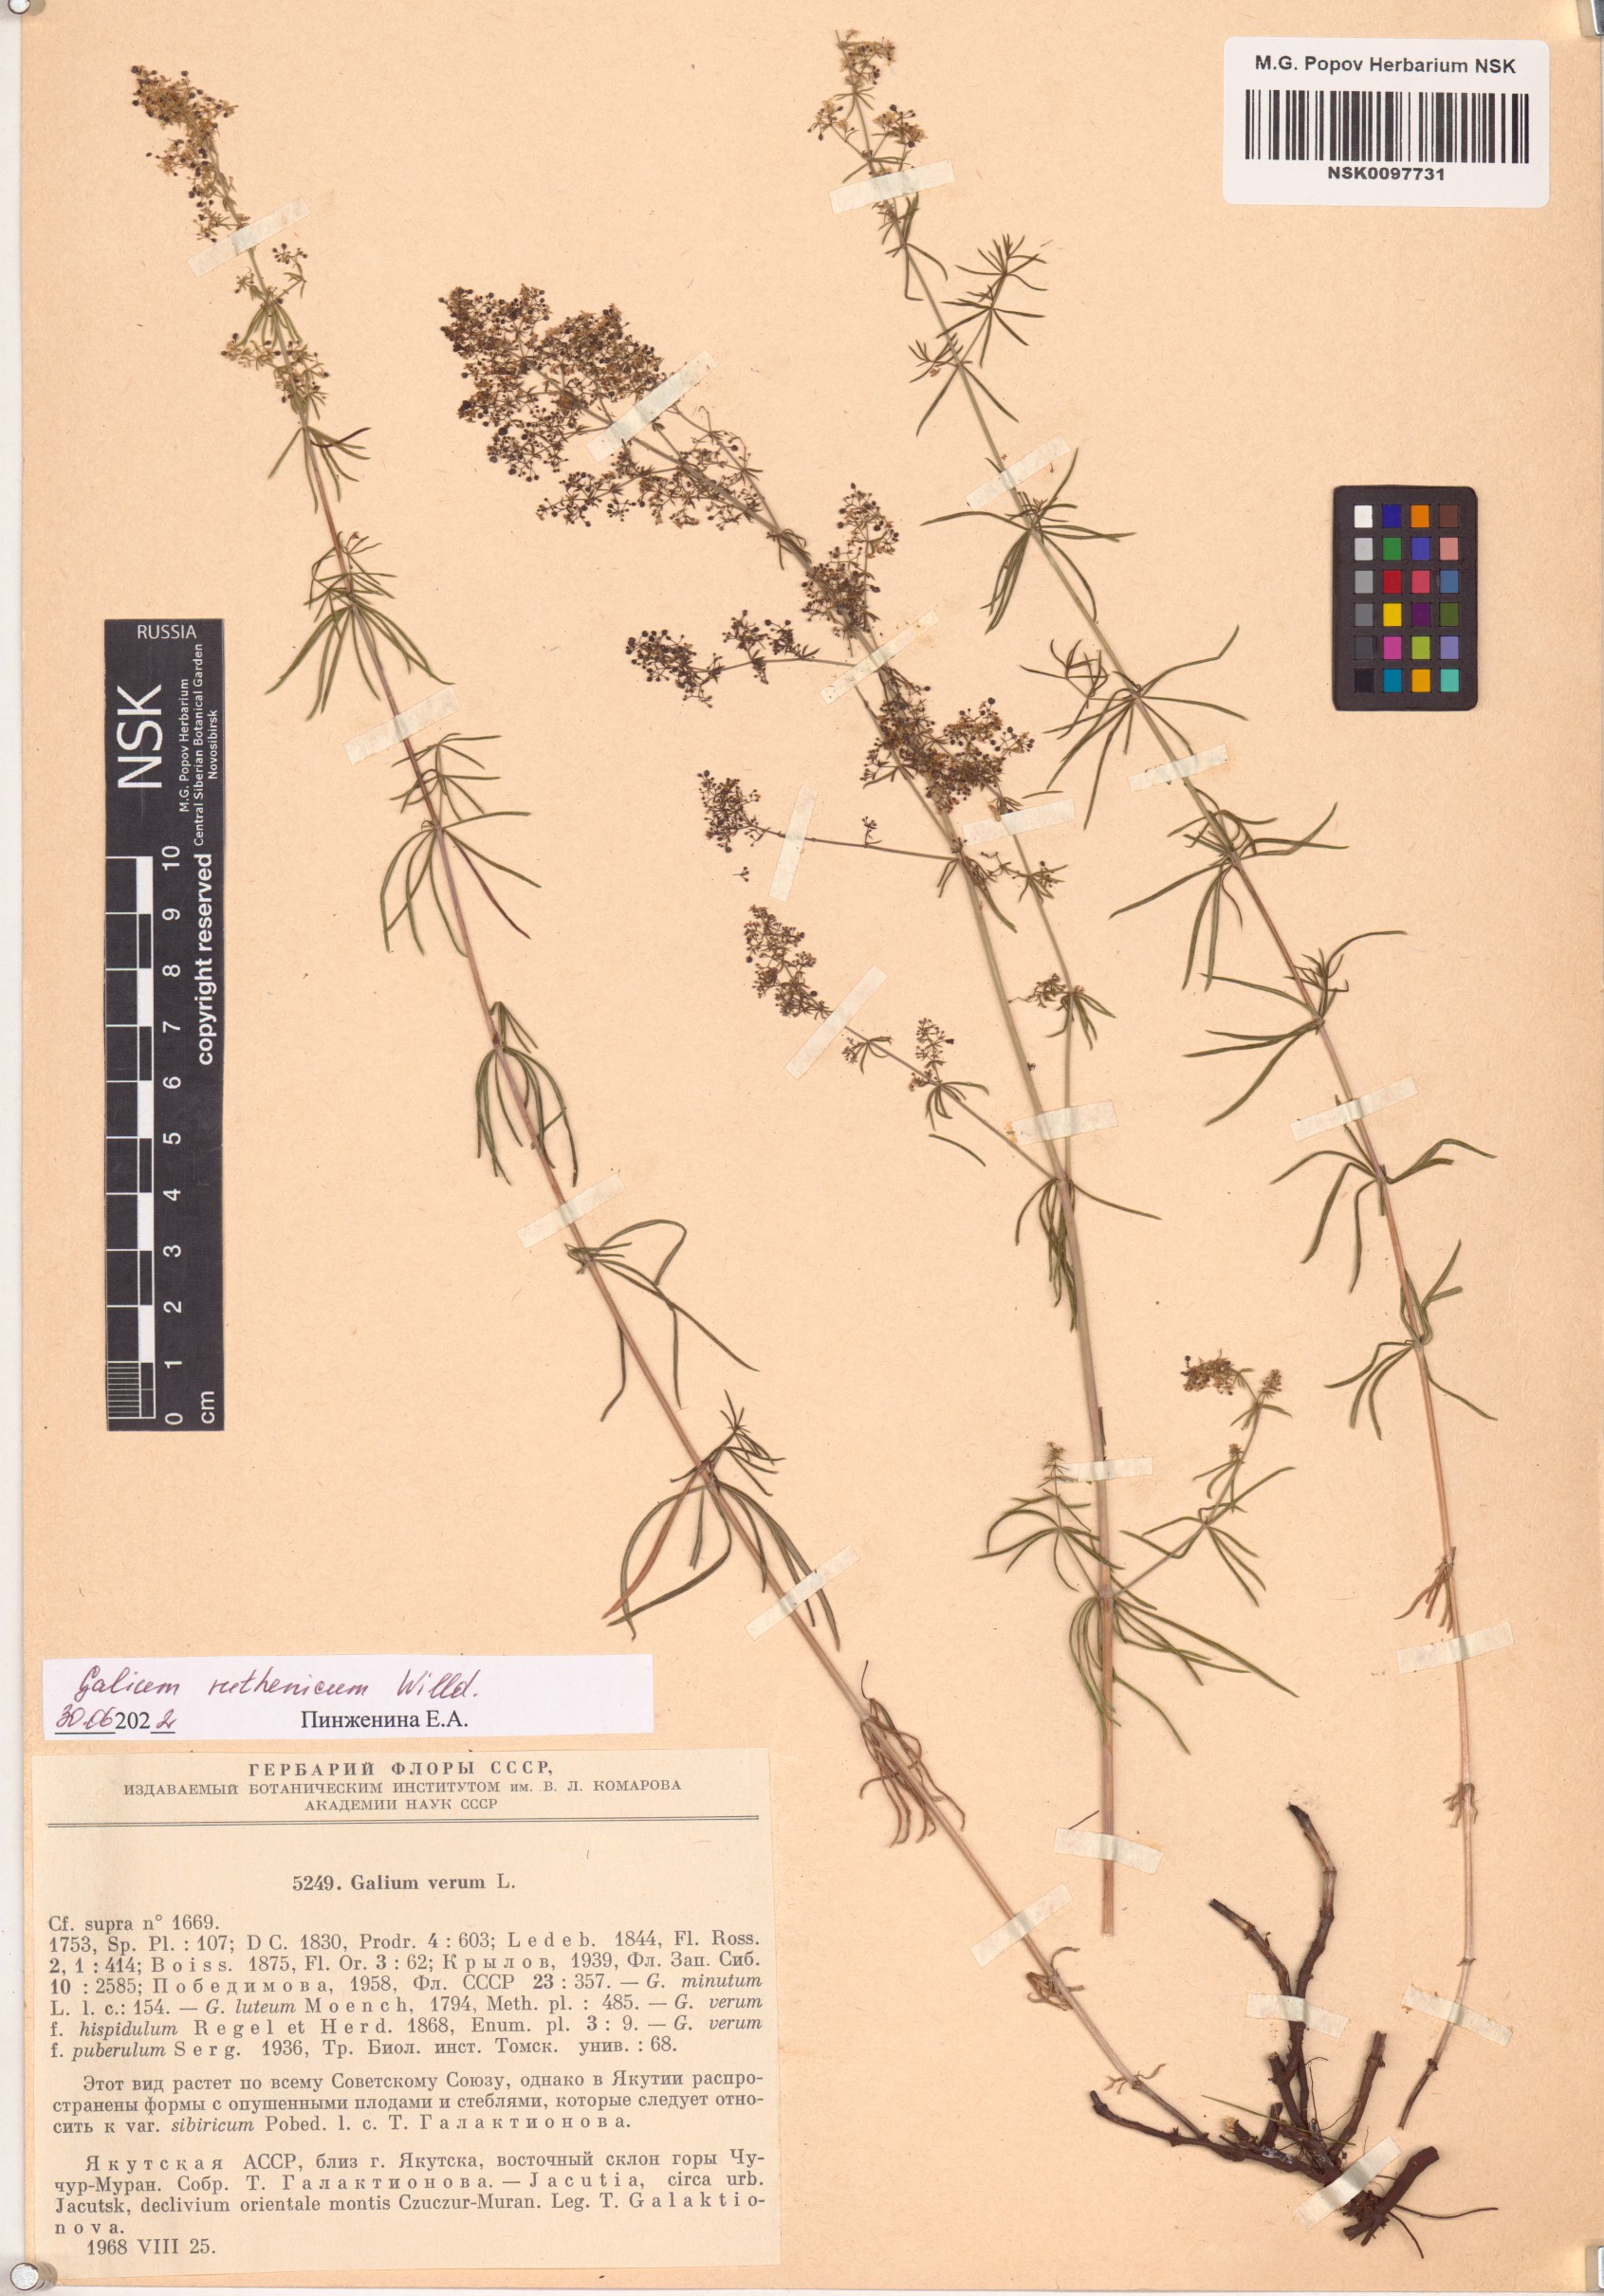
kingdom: Plantae
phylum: Tracheophyta
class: Magnoliopsida
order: Gentianales
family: Rubiaceae
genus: Galium
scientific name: Galium verum
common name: Lady's bedstraw
